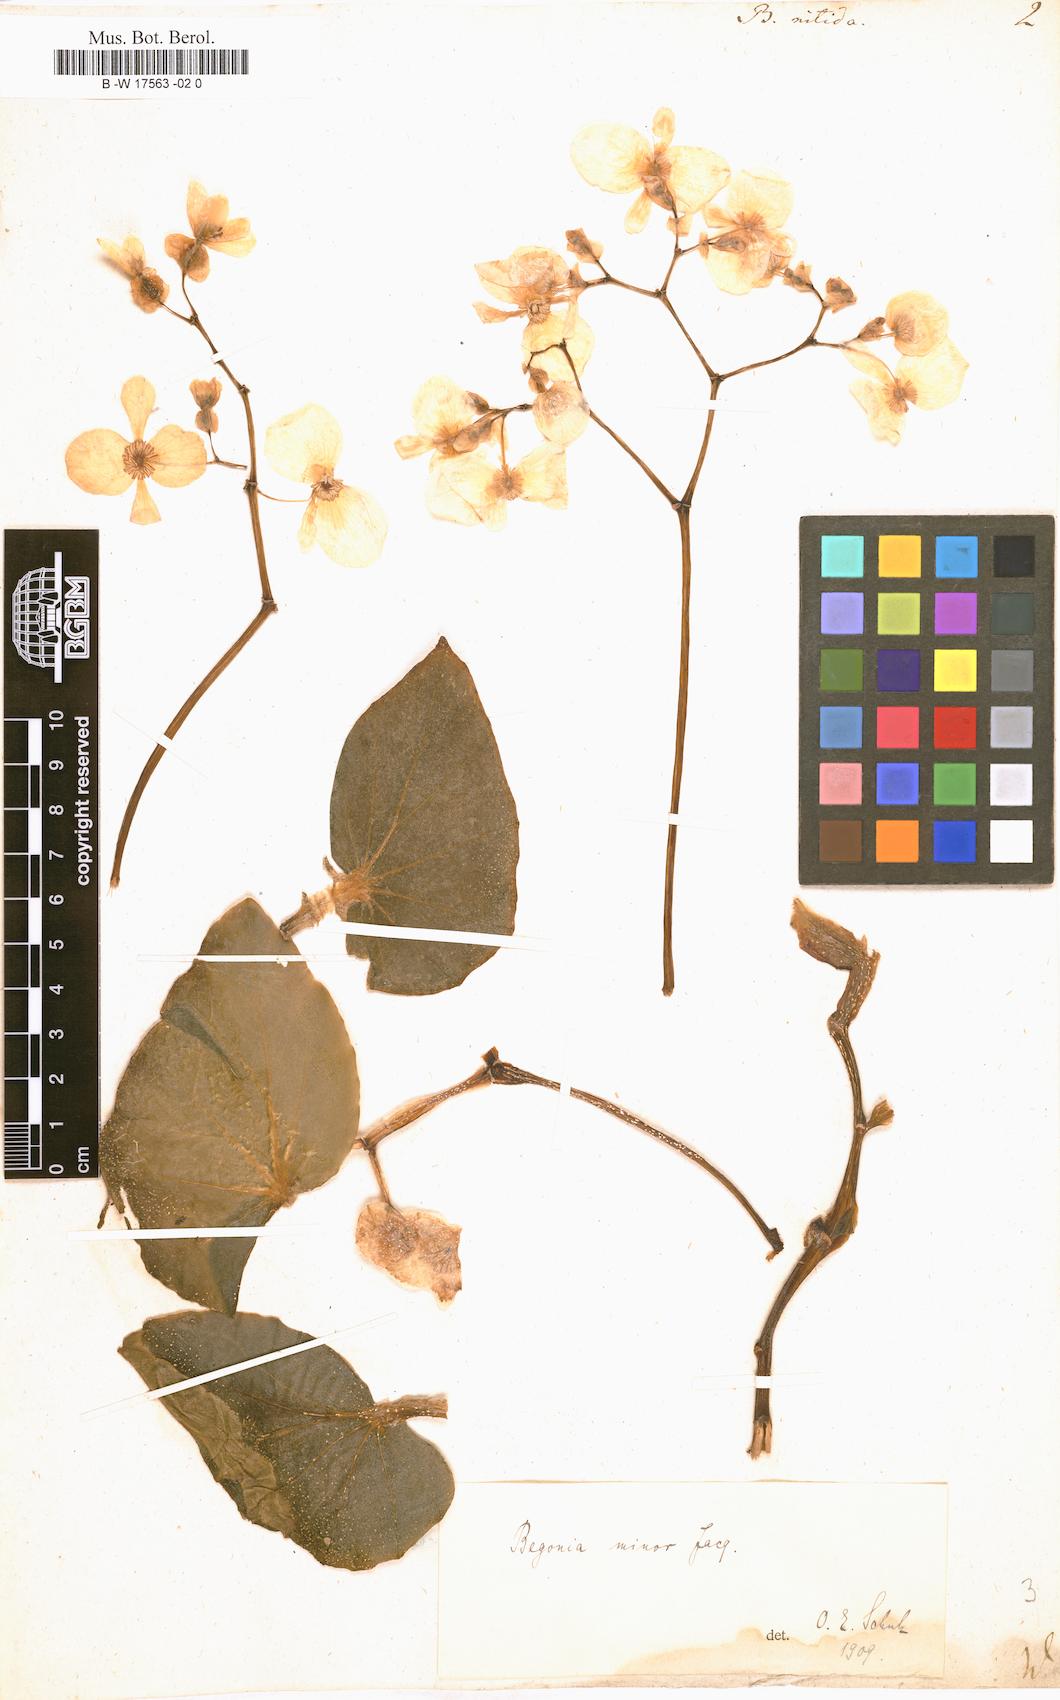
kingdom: Plantae
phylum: Tracheophyta
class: Magnoliopsida
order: Cucurbitales
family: Begoniaceae
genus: Begonia
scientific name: Begonia
